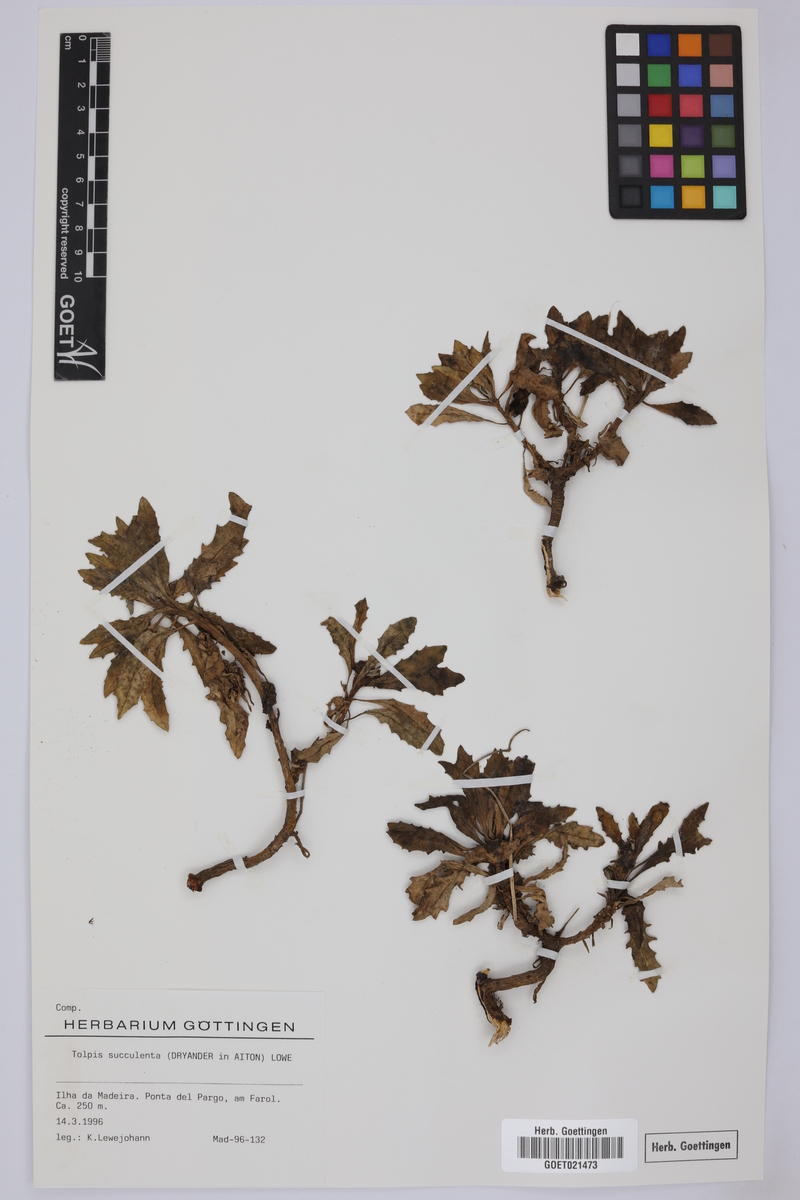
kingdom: Plantae
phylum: Tracheophyta
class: Magnoliopsida
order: Asterales
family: Asteraceae
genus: Tolpis
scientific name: Tolpis succulenta
